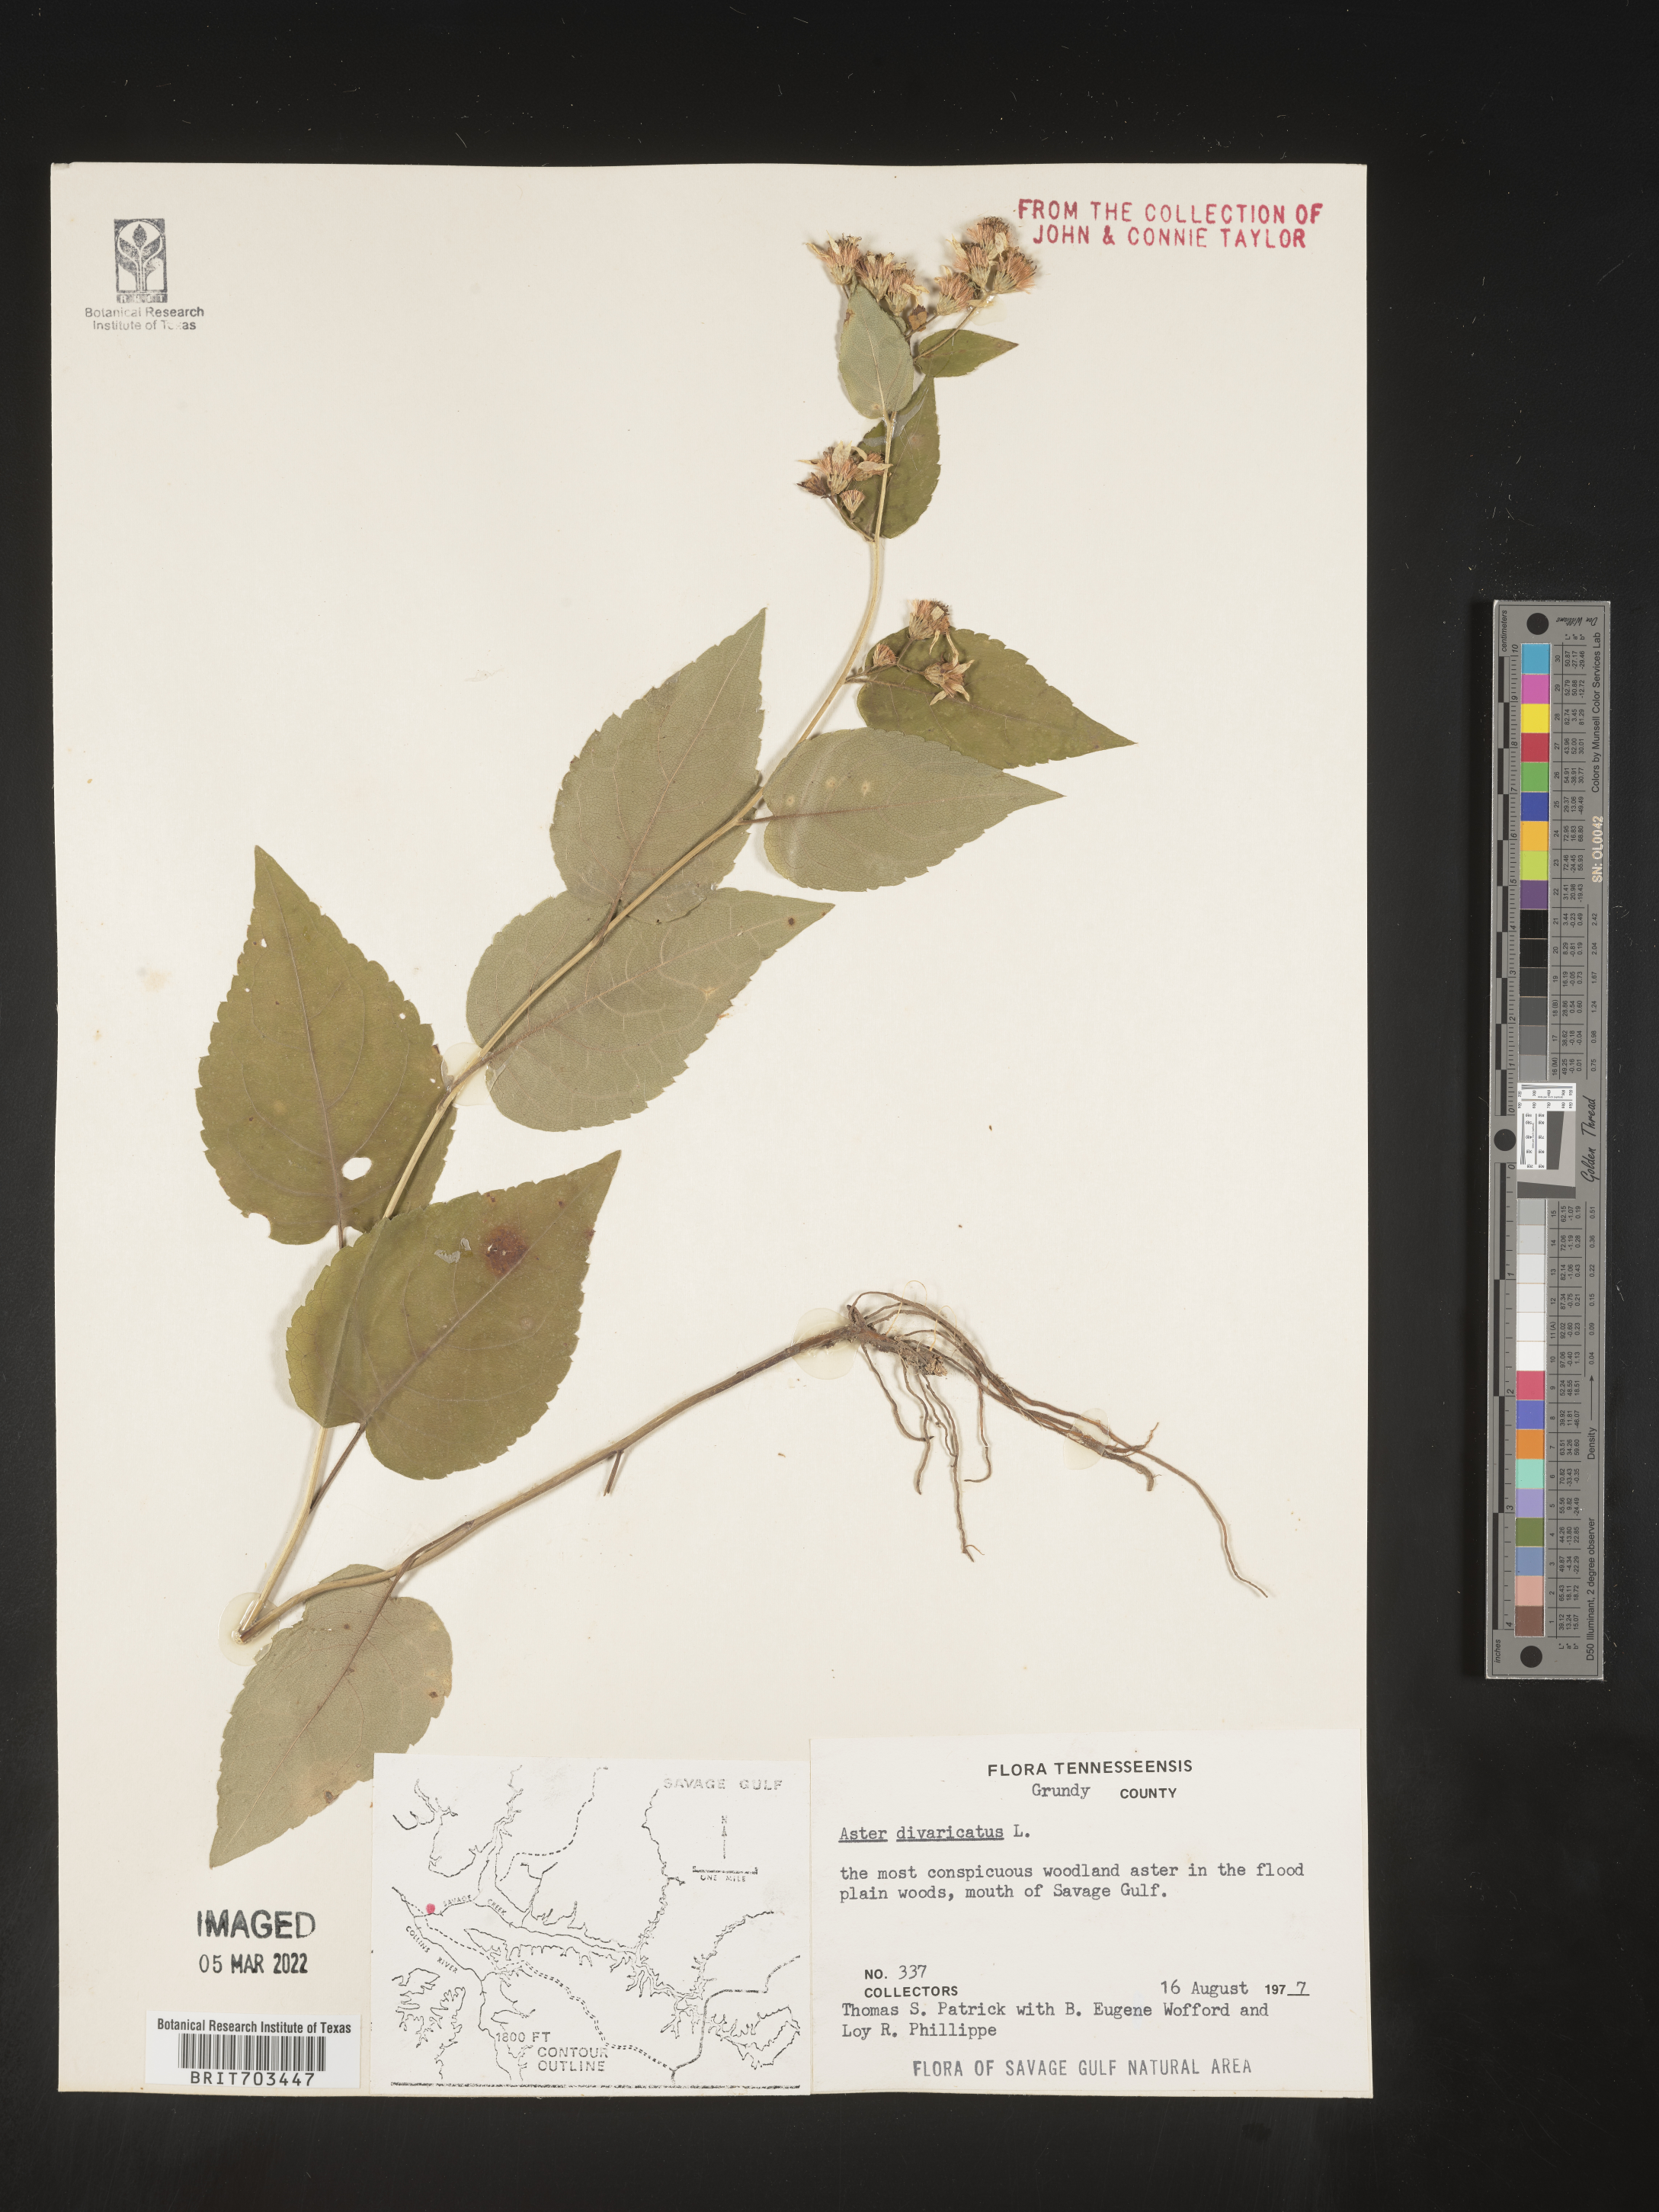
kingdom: Plantae
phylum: Tracheophyta
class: Magnoliopsida
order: Asterales
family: Asteraceae
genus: Eurybia
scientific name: Eurybia divaricata
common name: White wood aster
